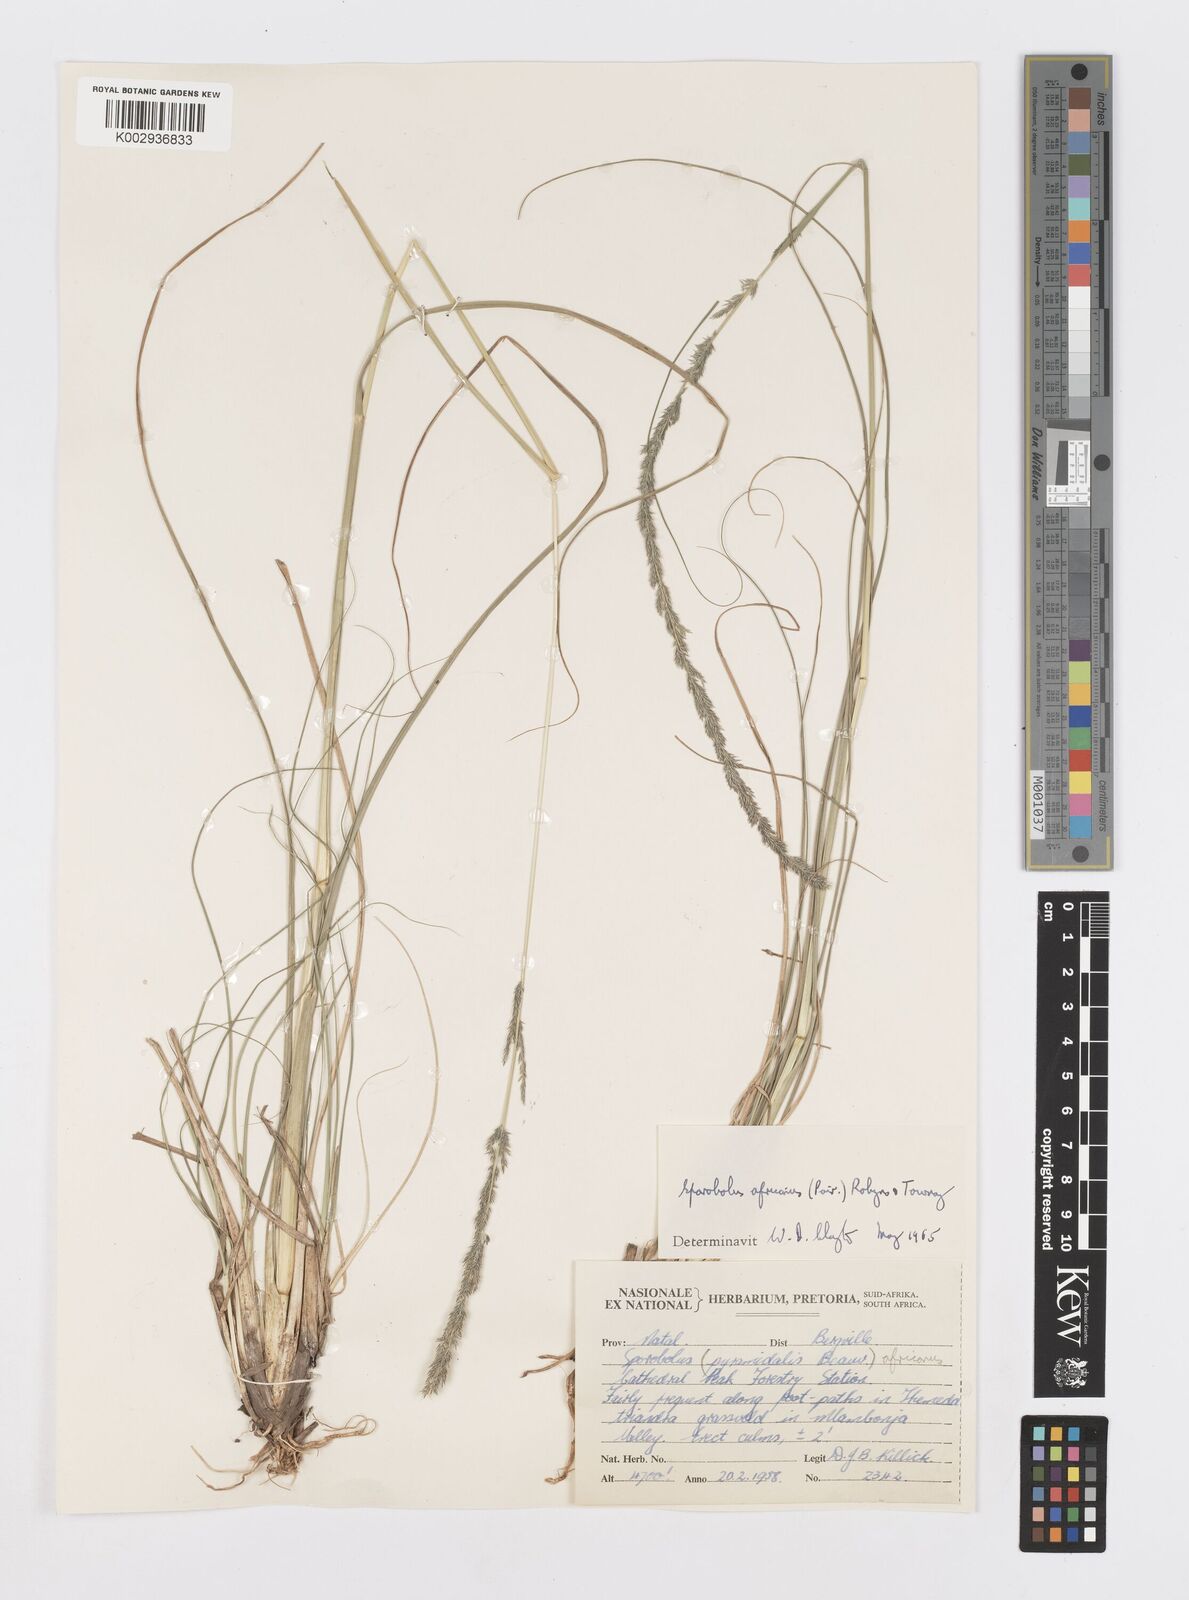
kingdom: Plantae
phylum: Tracheophyta
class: Liliopsida
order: Poales
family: Poaceae
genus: Sporobolus
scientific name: Sporobolus africanus
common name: African dropseed
